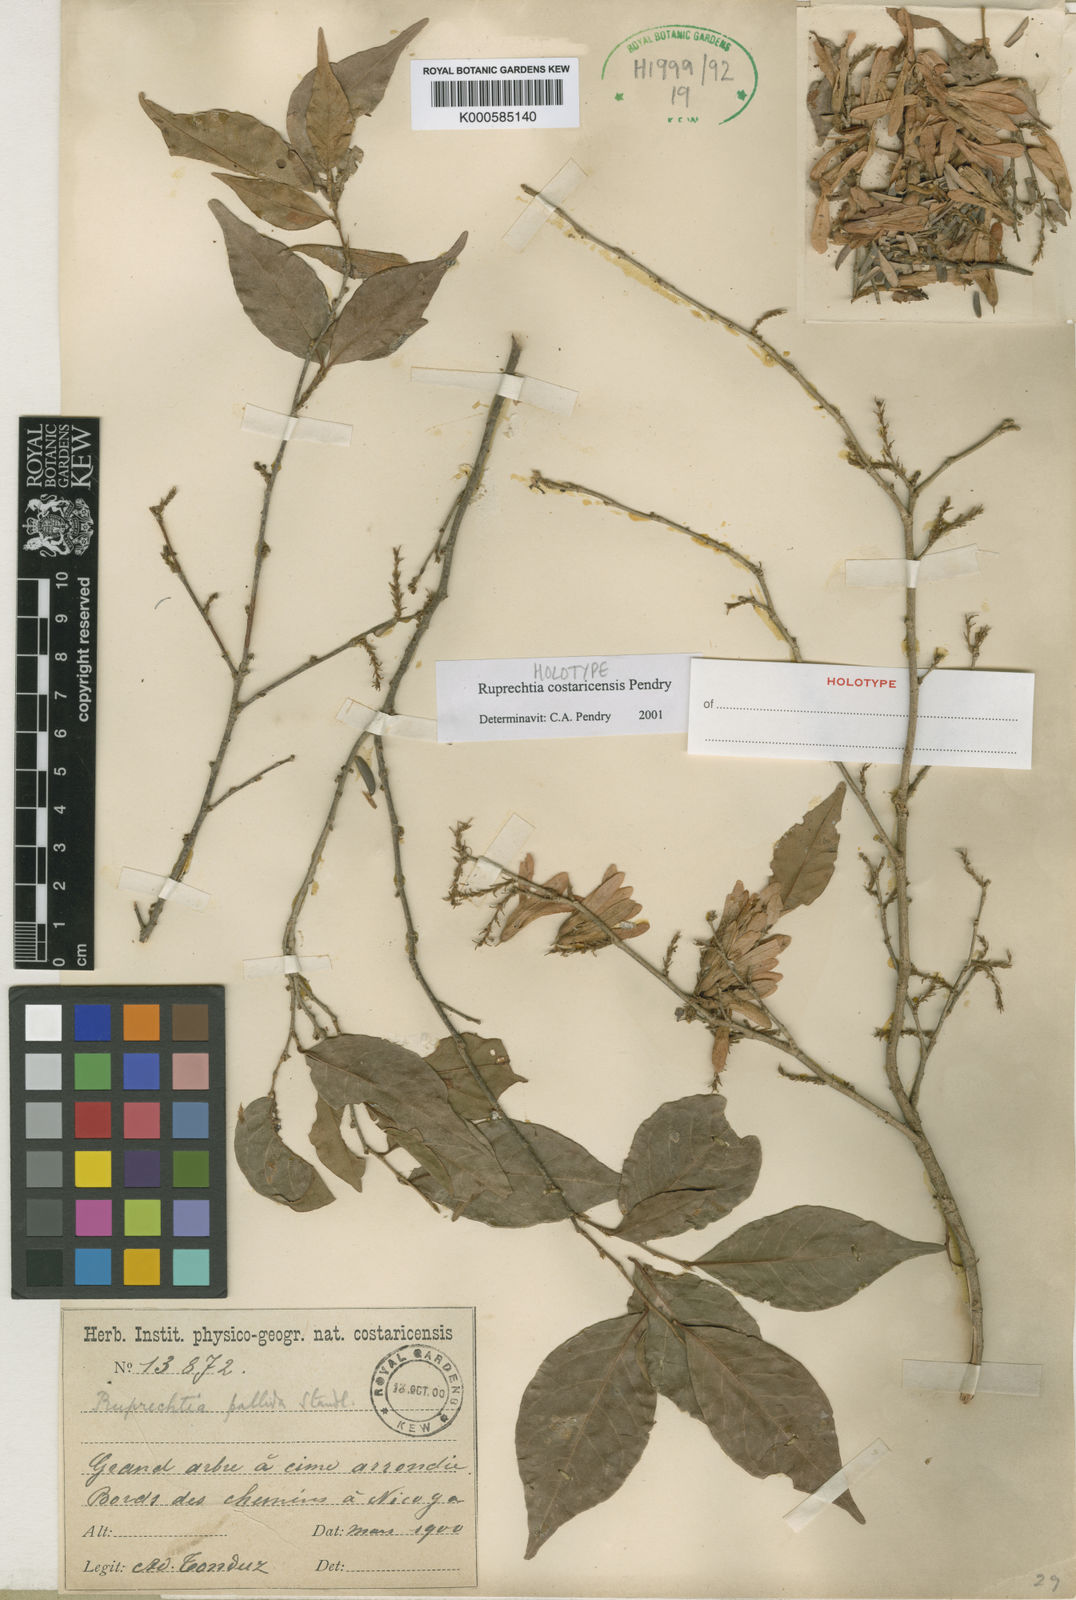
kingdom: Plantae
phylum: Tracheophyta
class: Magnoliopsida
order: Caryophyllales
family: Polygonaceae
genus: Ruprechtia
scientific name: Ruprechtia costaricensis
